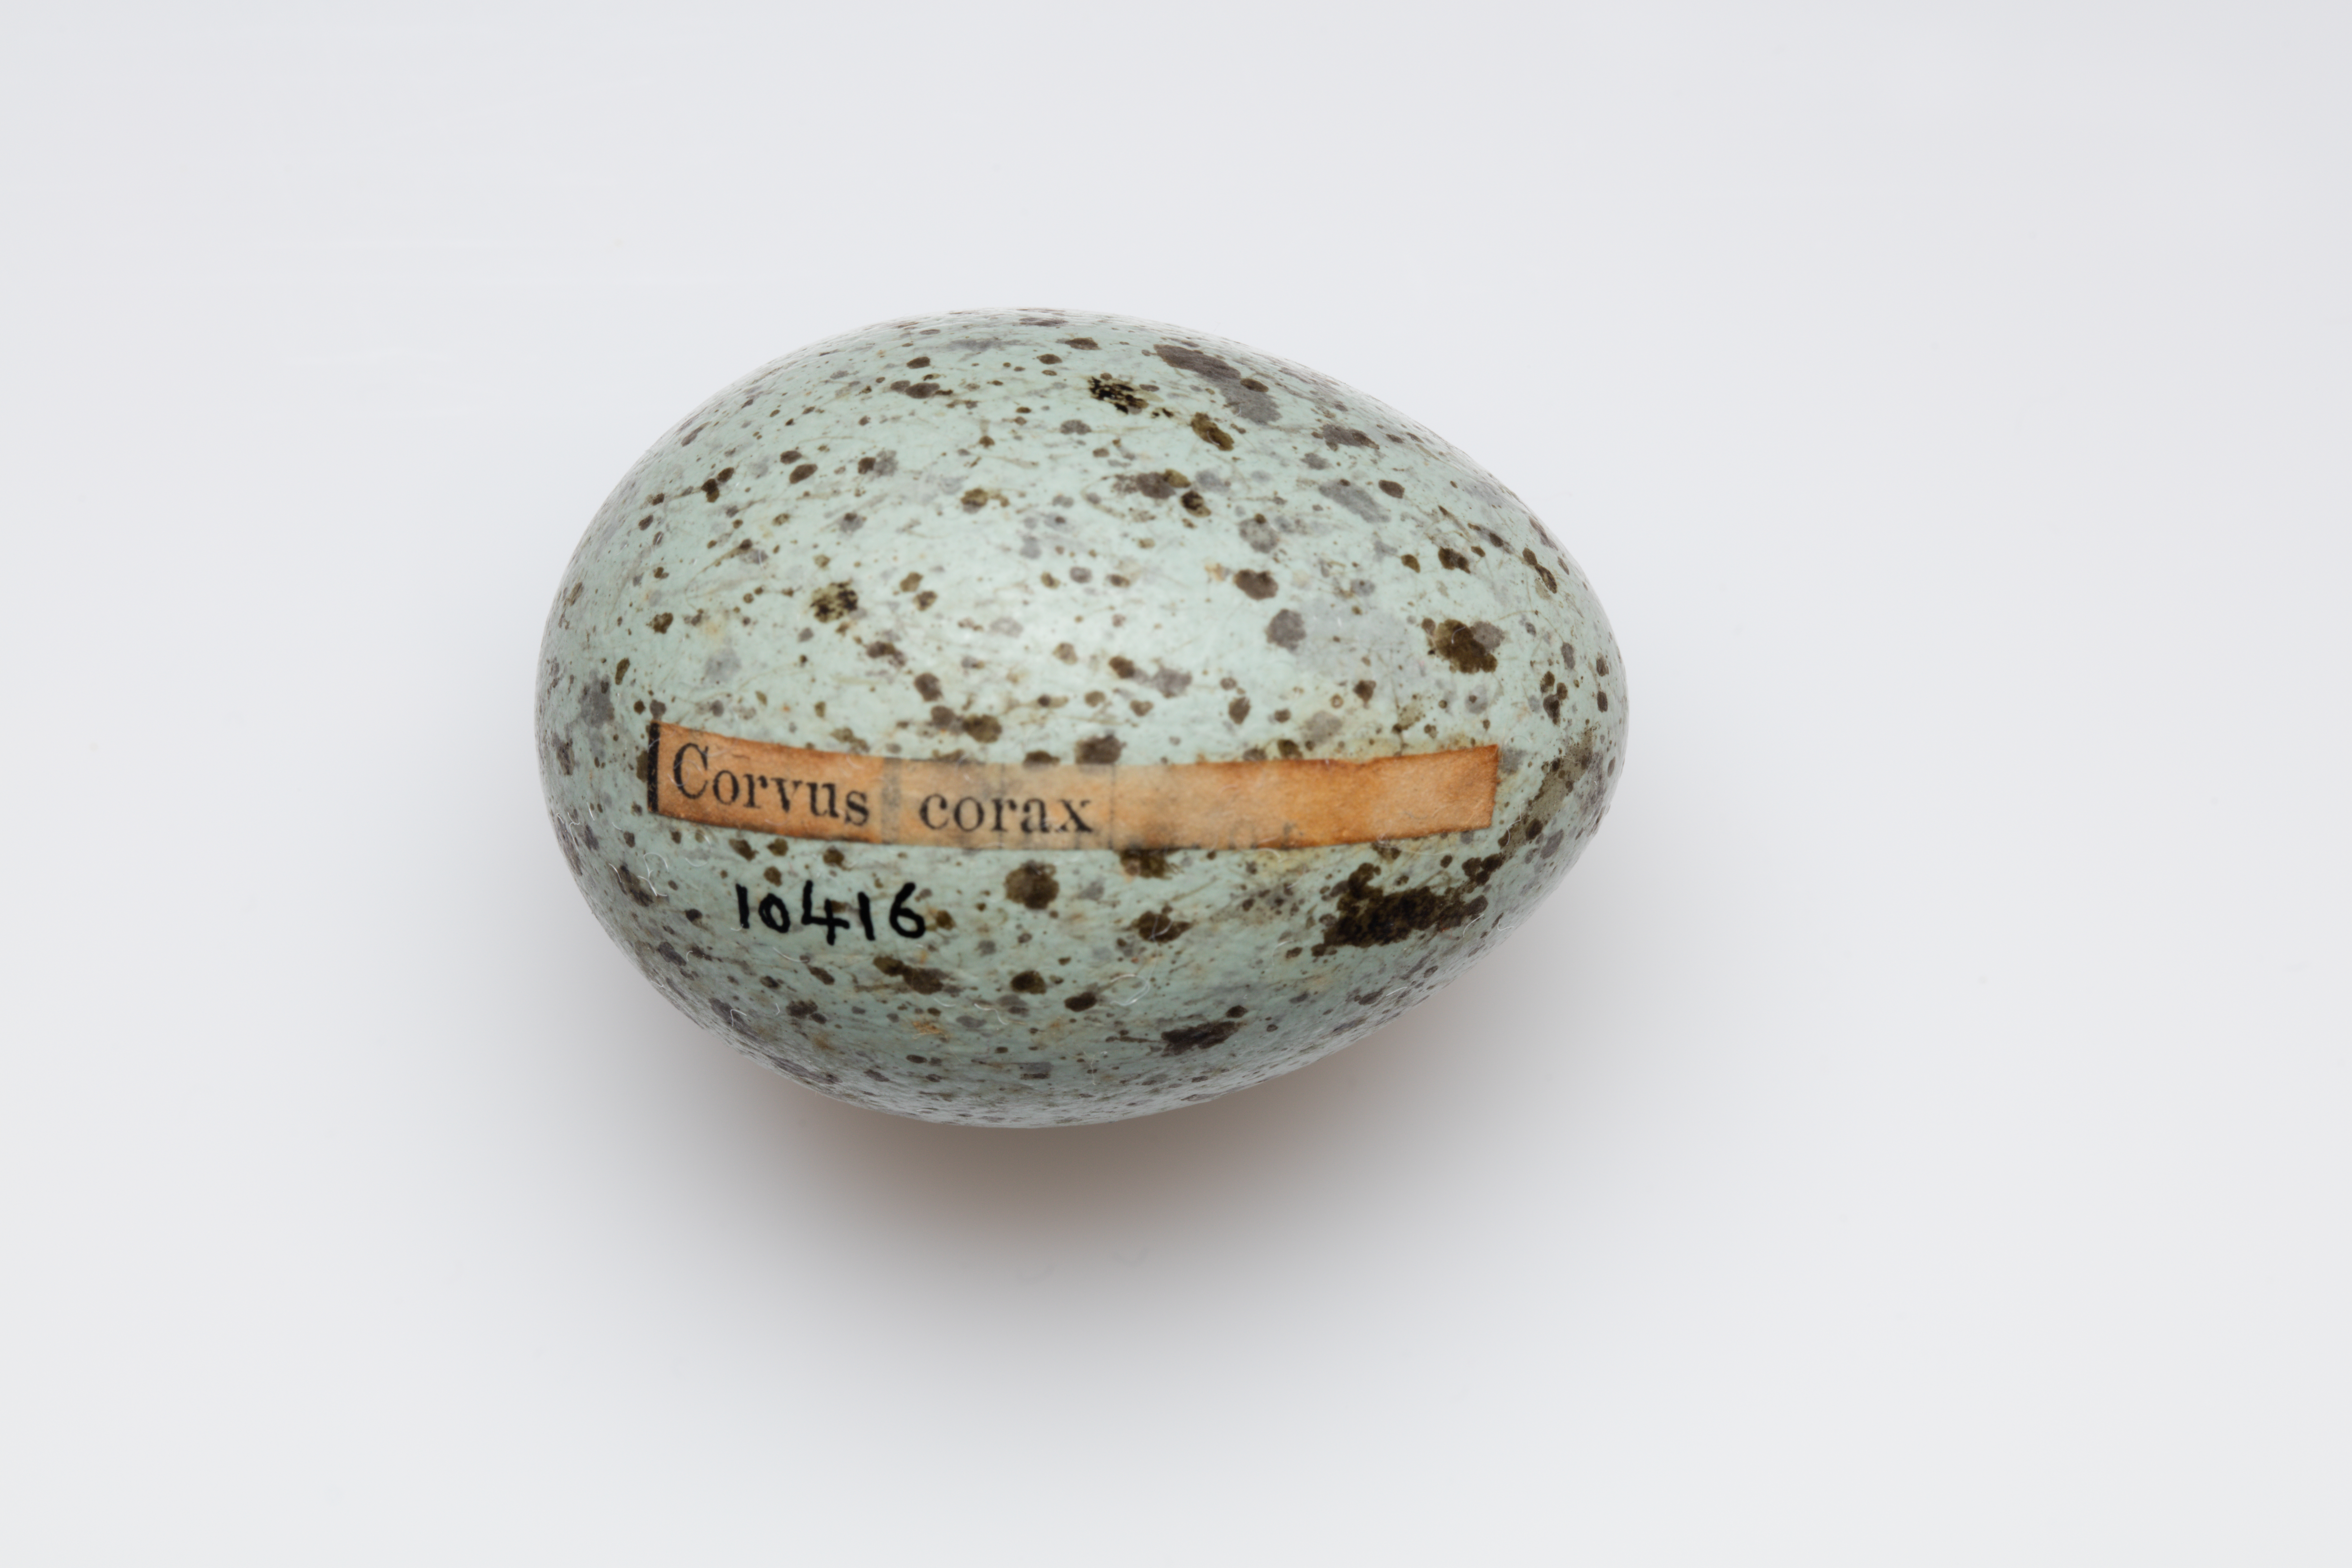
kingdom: Animalia
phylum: Chordata
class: Aves
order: Passeriformes
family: Corvidae
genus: Corvus
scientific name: Corvus corax
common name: Common raven
